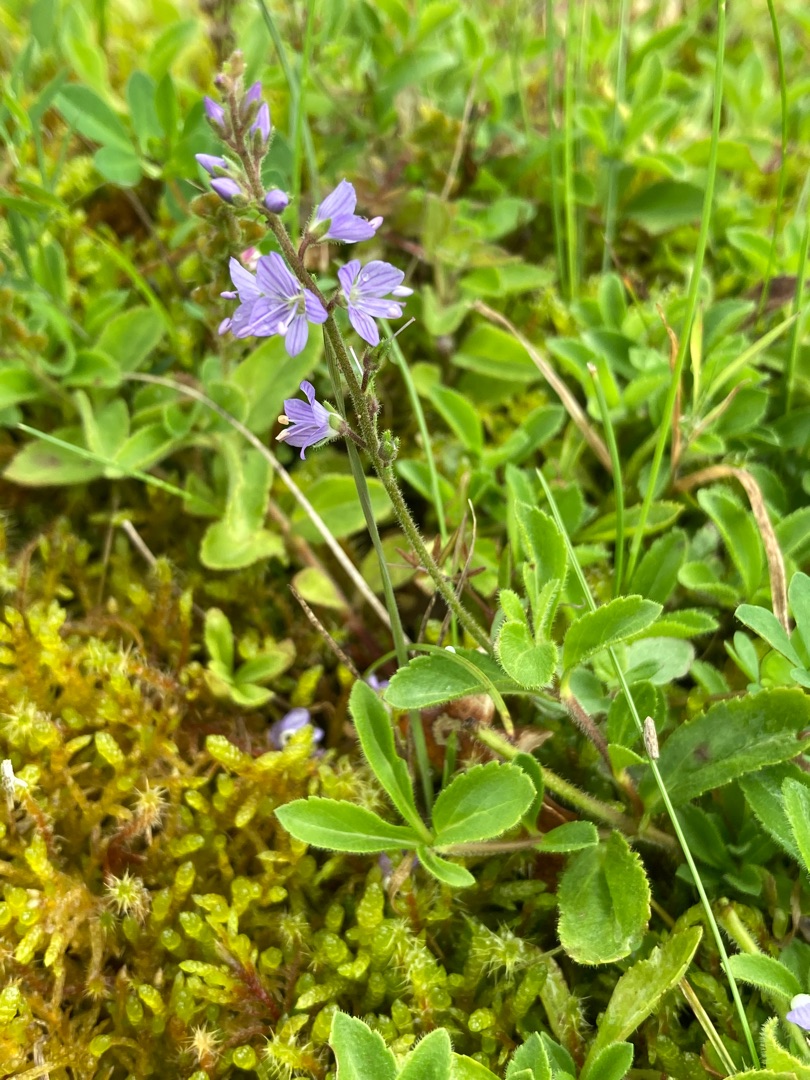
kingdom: Plantae
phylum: Tracheophyta
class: Magnoliopsida
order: Lamiales
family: Plantaginaceae
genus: Veronica
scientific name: Veronica officinalis
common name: Læge-ærenpris
